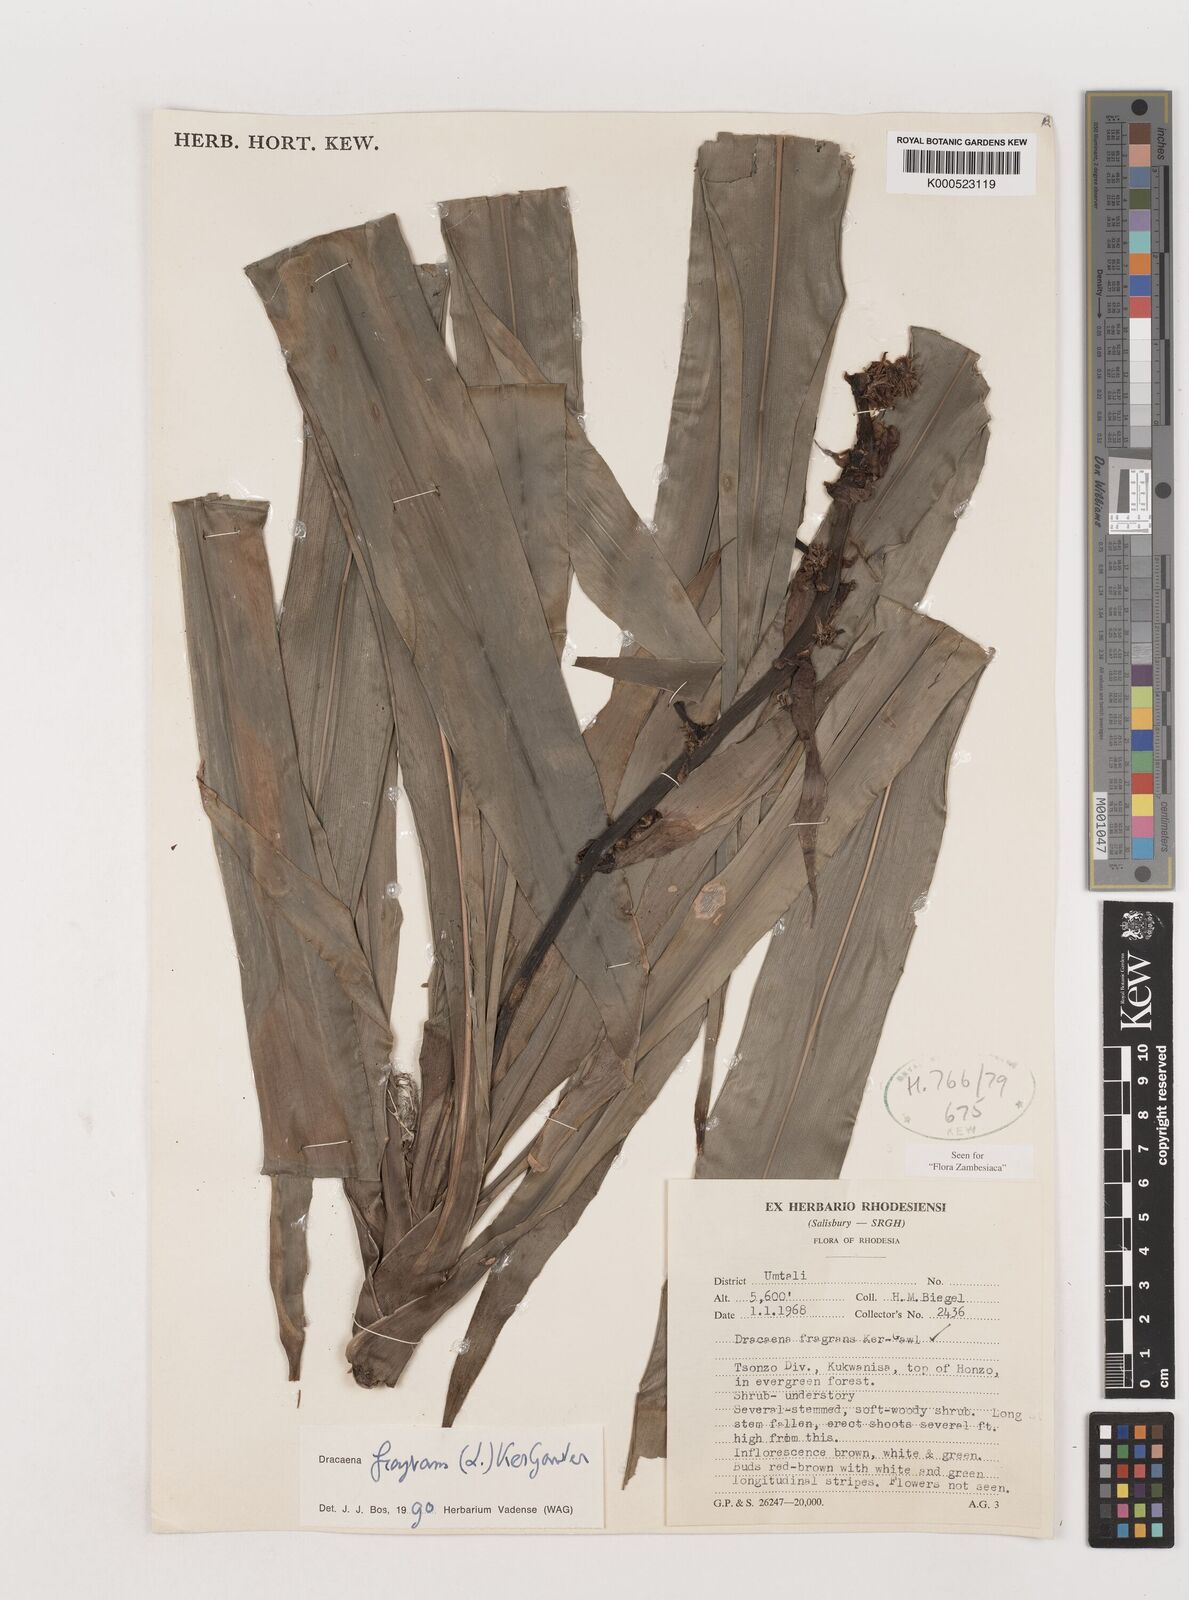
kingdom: Plantae
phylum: Tracheophyta
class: Liliopsida
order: Asparagales
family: Asparagaceae
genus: Dracaena
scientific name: Dracaena fragrans
